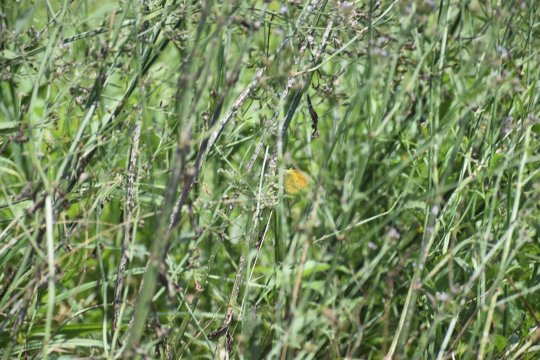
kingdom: Animalia
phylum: Arthropoda
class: Insecta
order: Lepidoptera
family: Pieridae
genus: Abaeis
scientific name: Abaeis nicippe
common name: Sleepy Orange
